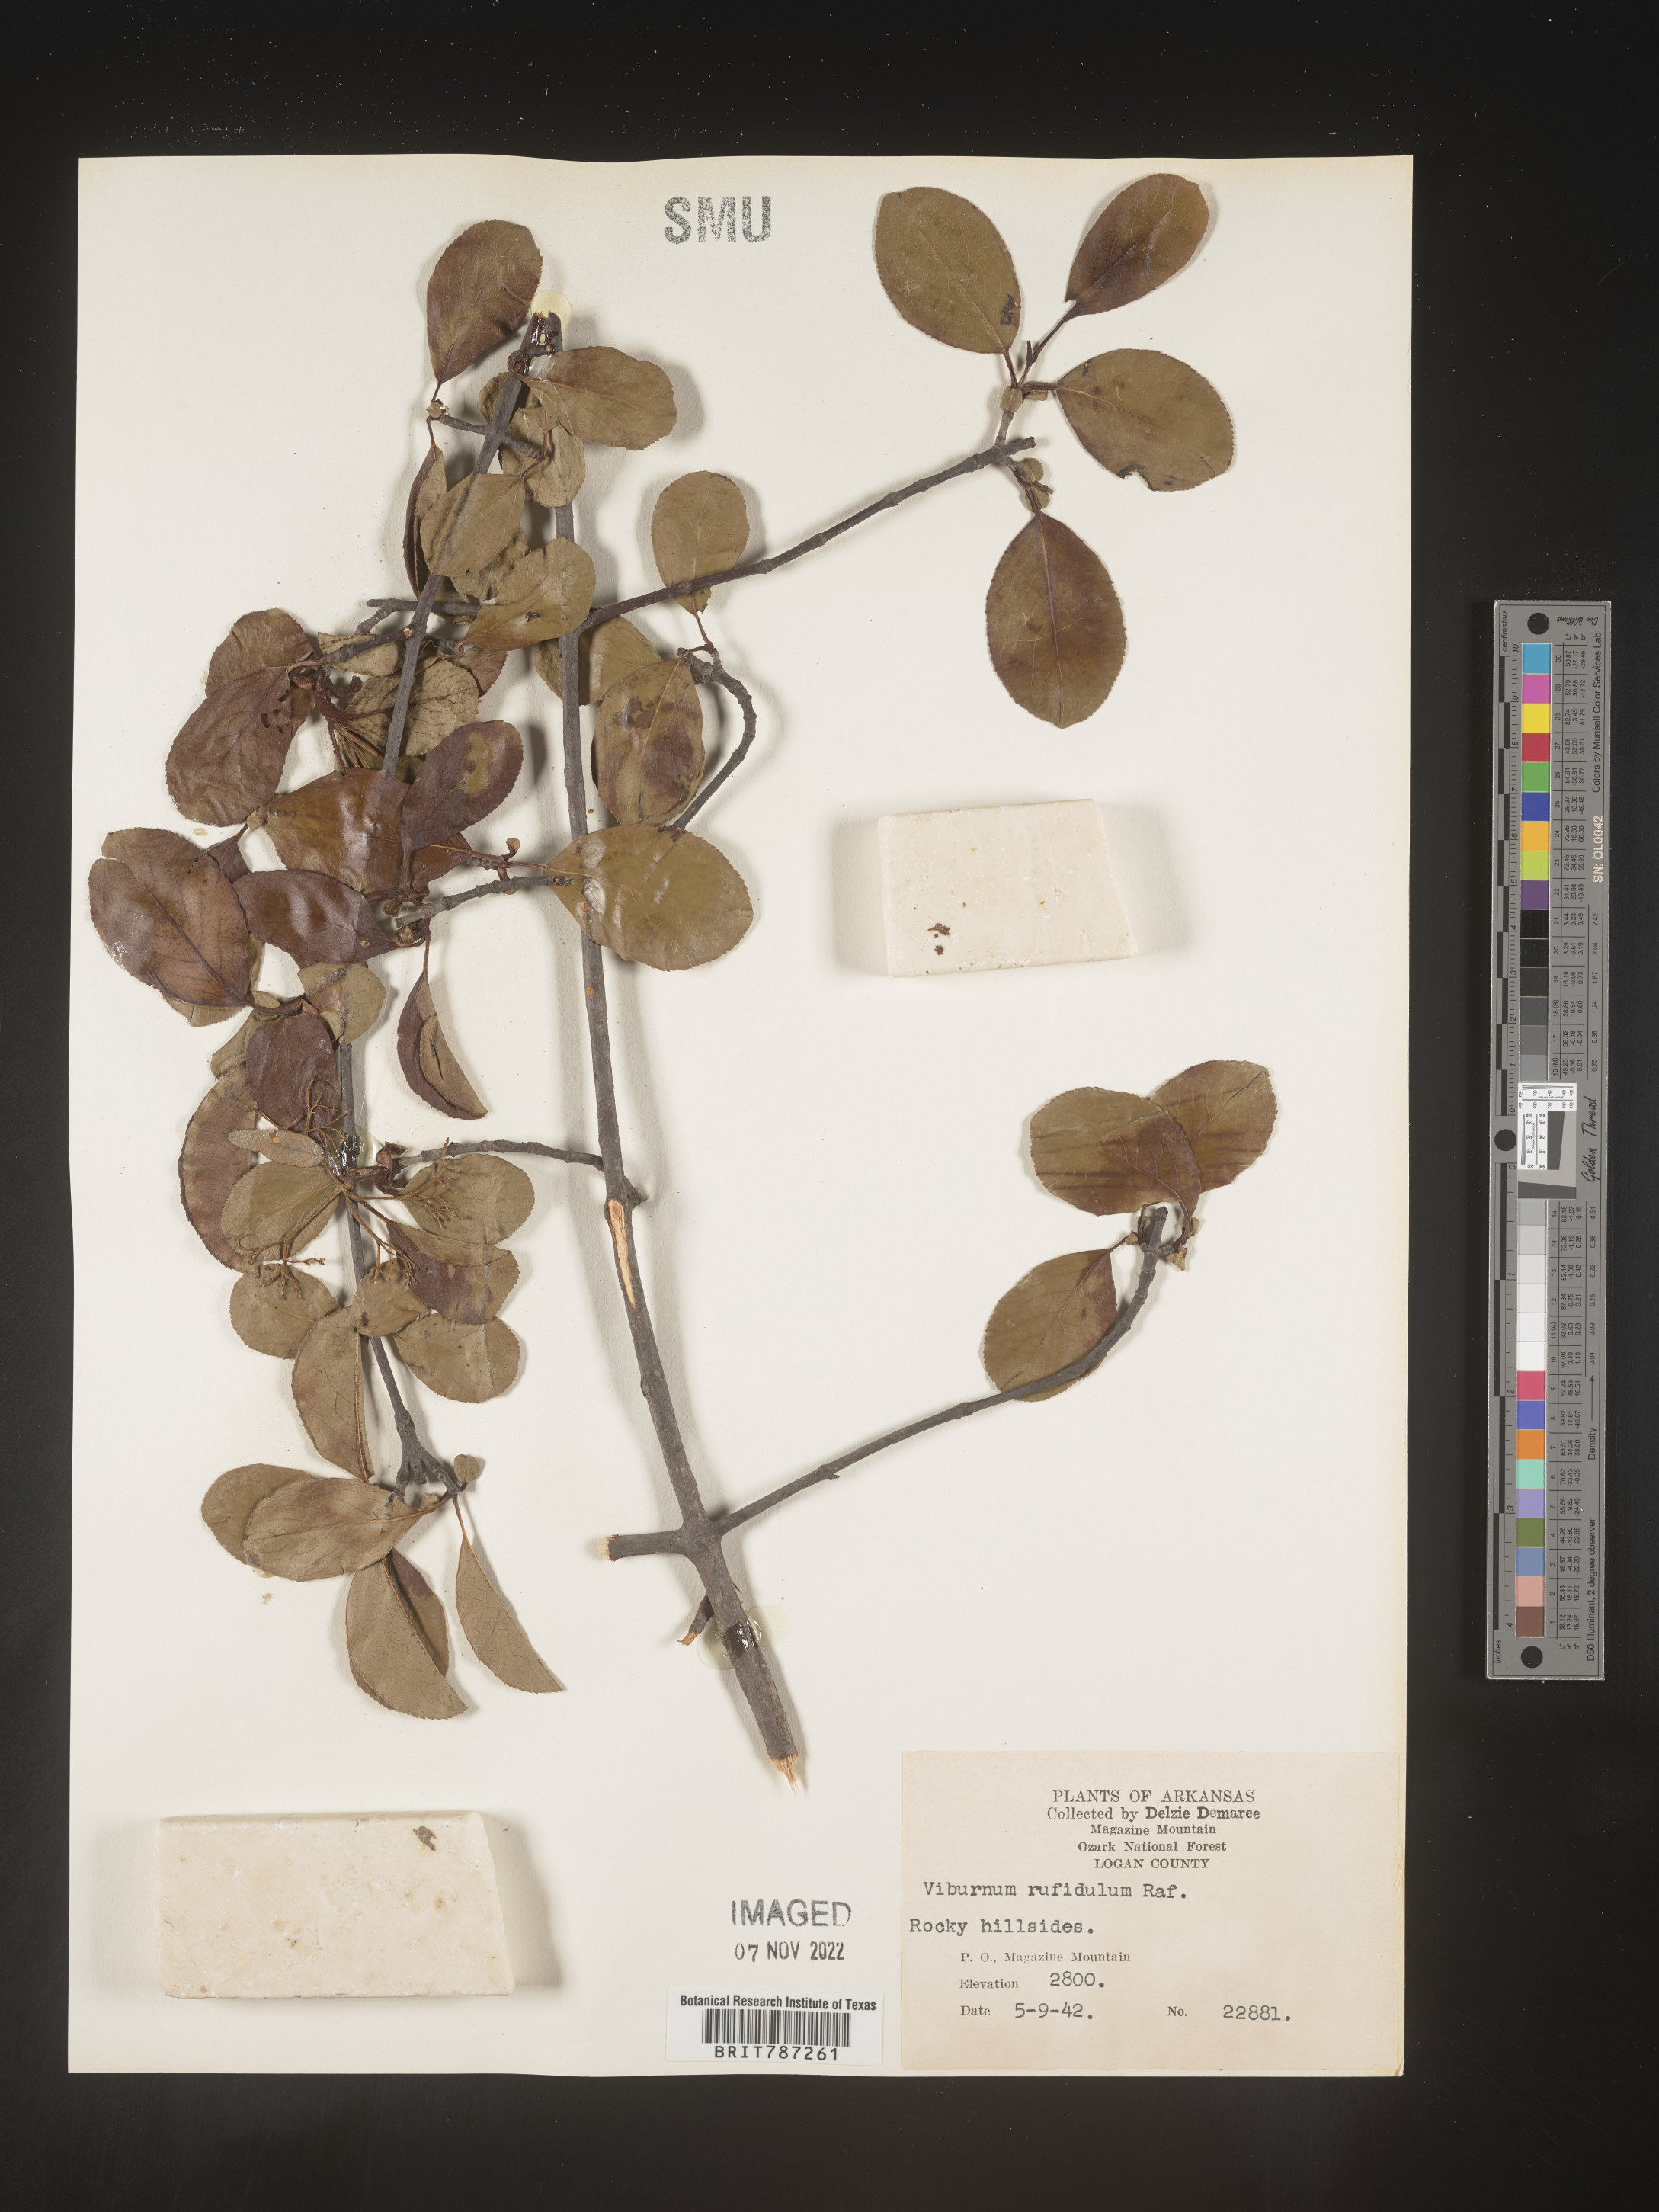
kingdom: Plantae
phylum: Tracheophyta
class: Magnoliopsida
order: Dipsacales
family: Viburnaceae
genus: Viburnum
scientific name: Viburnum rufidulum
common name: Blue haw
